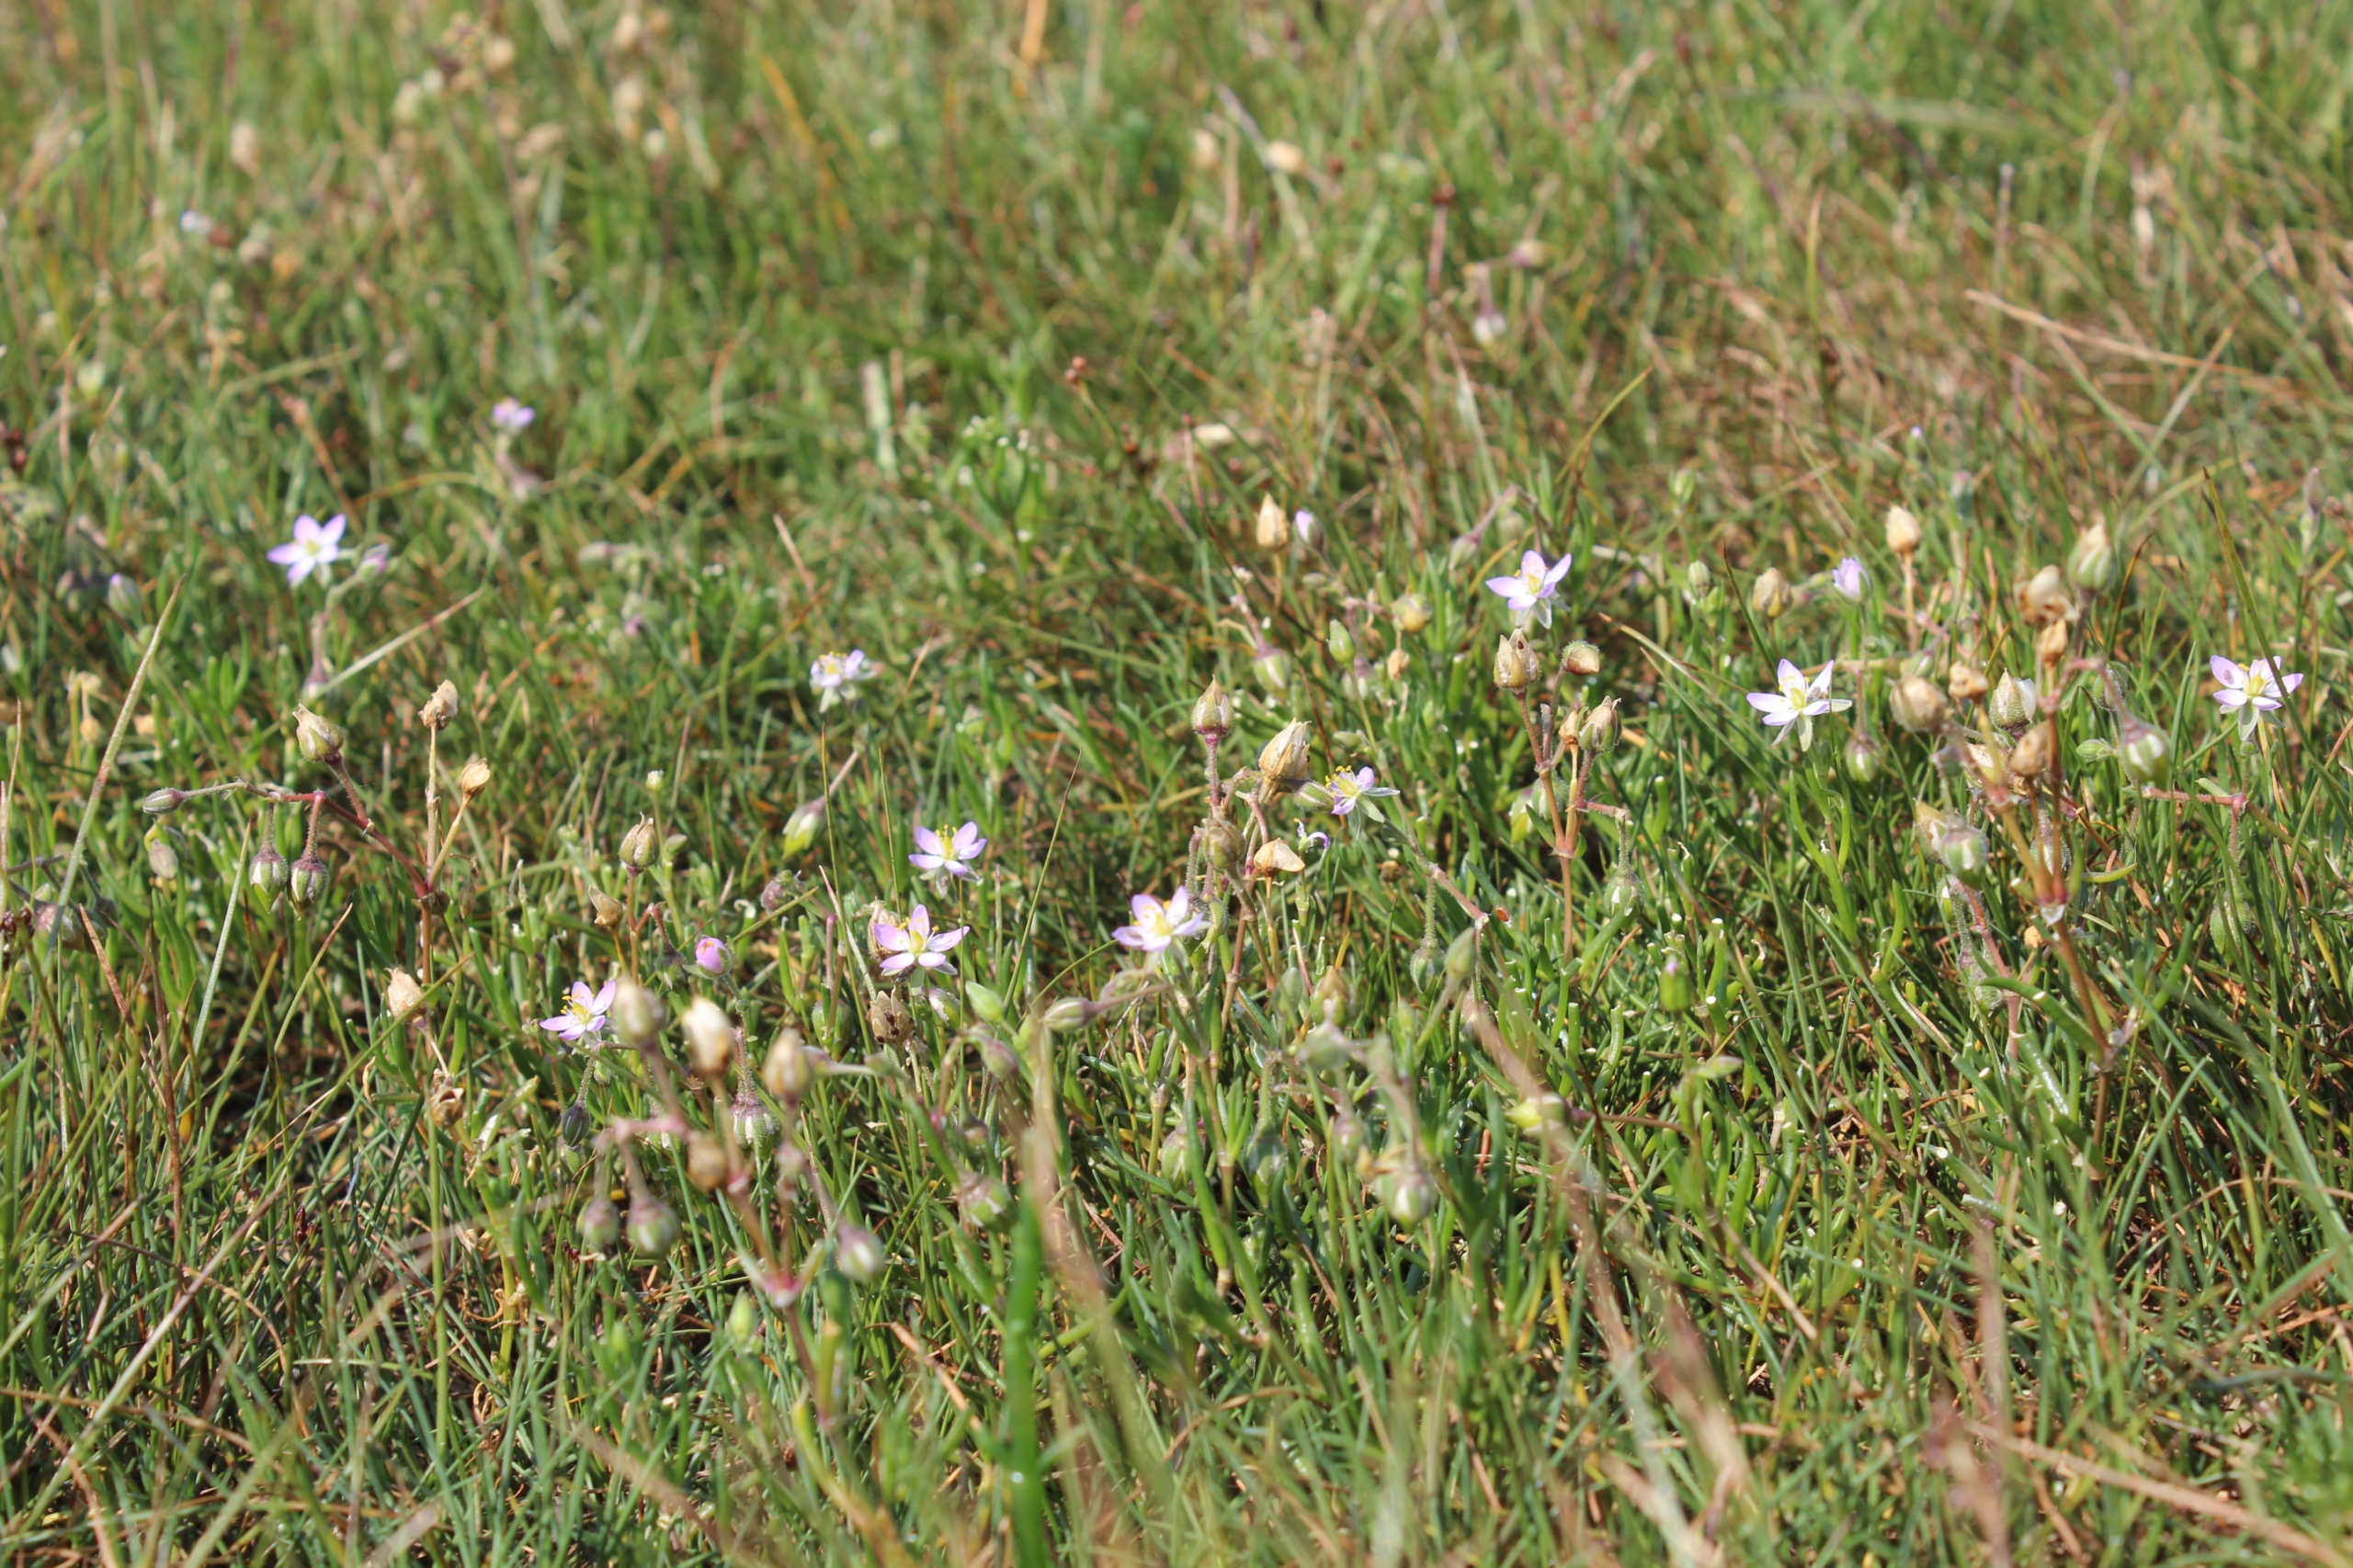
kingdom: Plantae
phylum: Tracheophyta
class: Magnoliopsida
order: Caryophyllales
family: Caryophyllaceae
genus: Spergularia
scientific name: Spergularia media
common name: Vingefrøet hindeknæ
